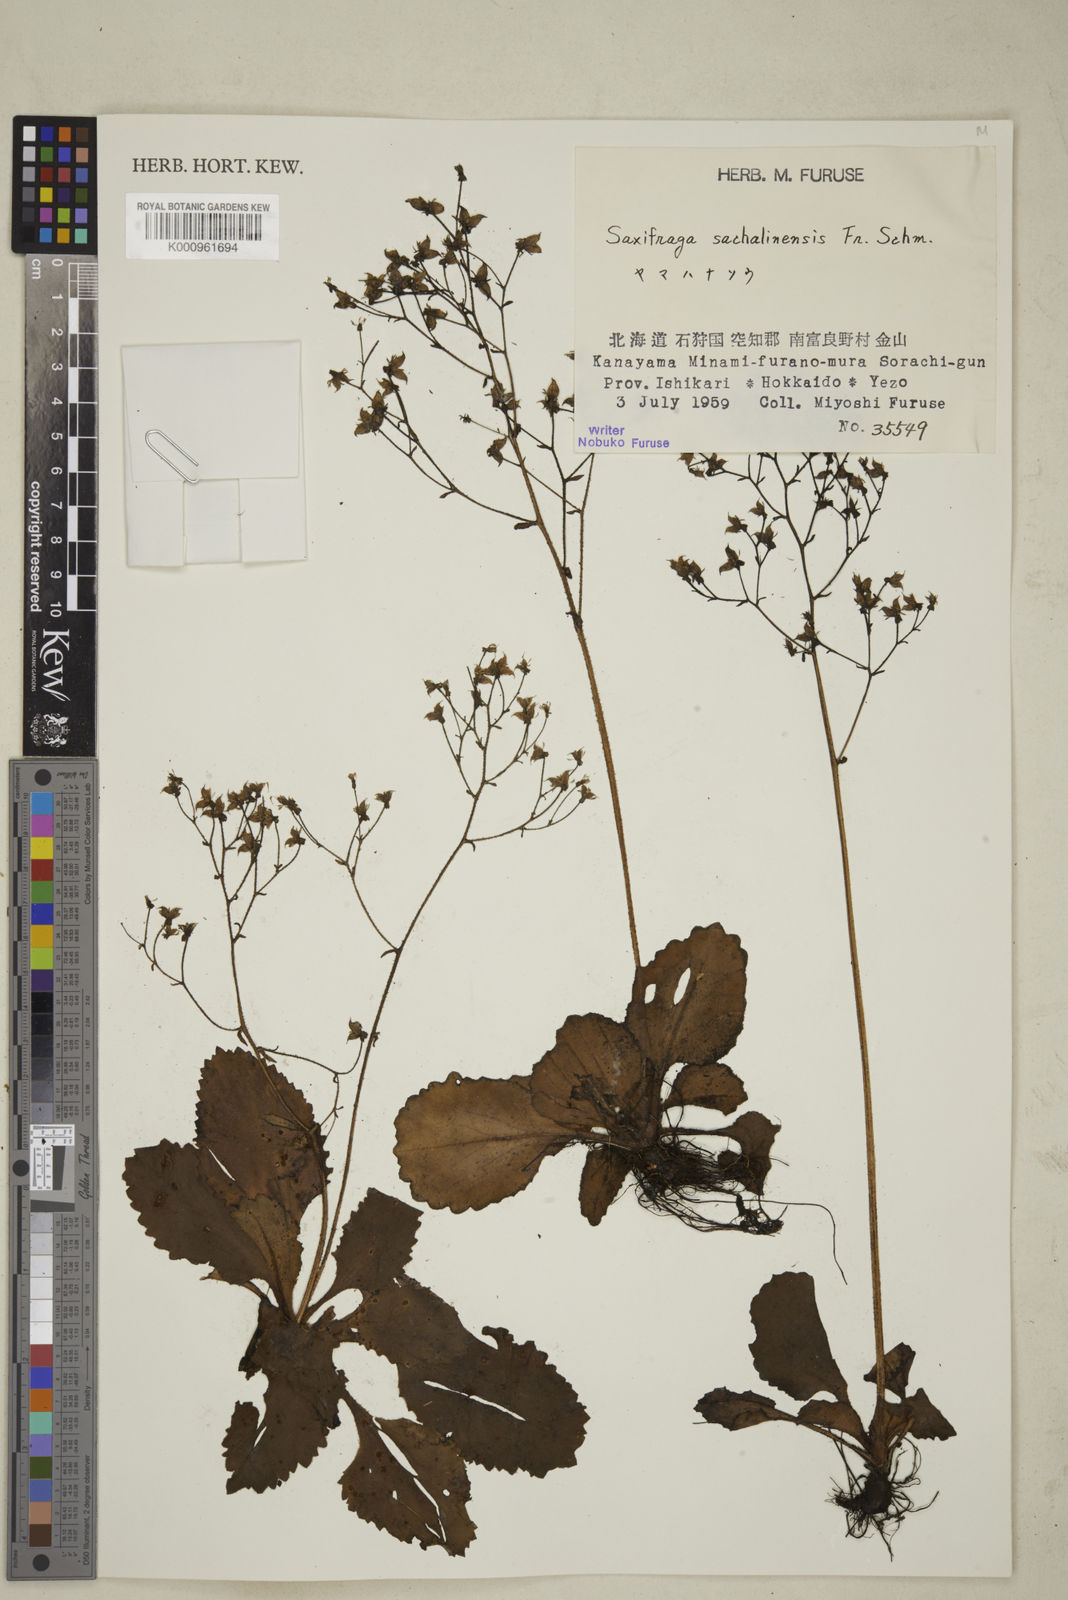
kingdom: Plantae
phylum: Tracheophyta
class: Magnoliopsida
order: Saxifragales
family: Saxifragaceae
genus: Micranthes
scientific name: Micranthes sachalinensis
